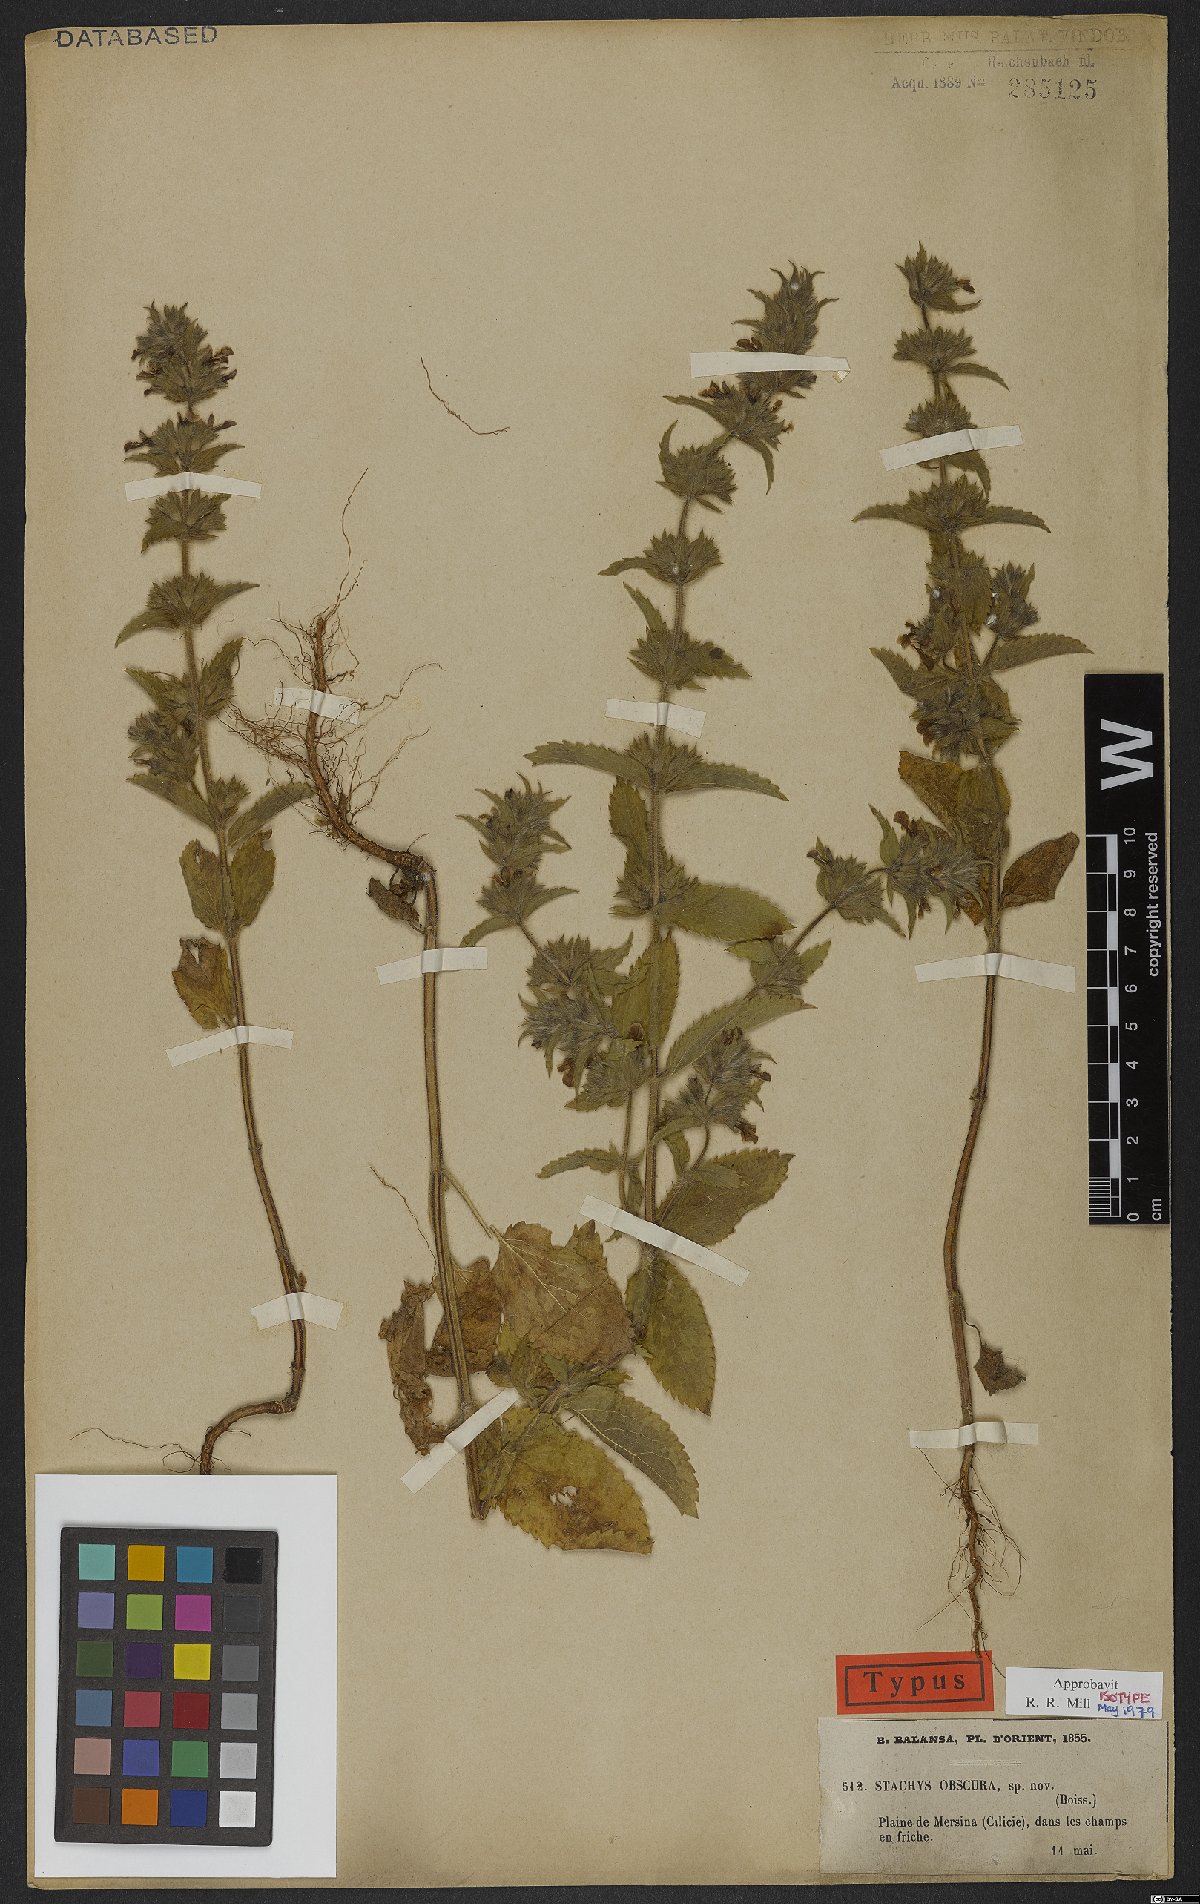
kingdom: Plantae
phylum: Tracheophyta
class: Magnoliopsida
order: Lamiales
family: Lamiaceae
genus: Stachys
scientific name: Stachys obscura
